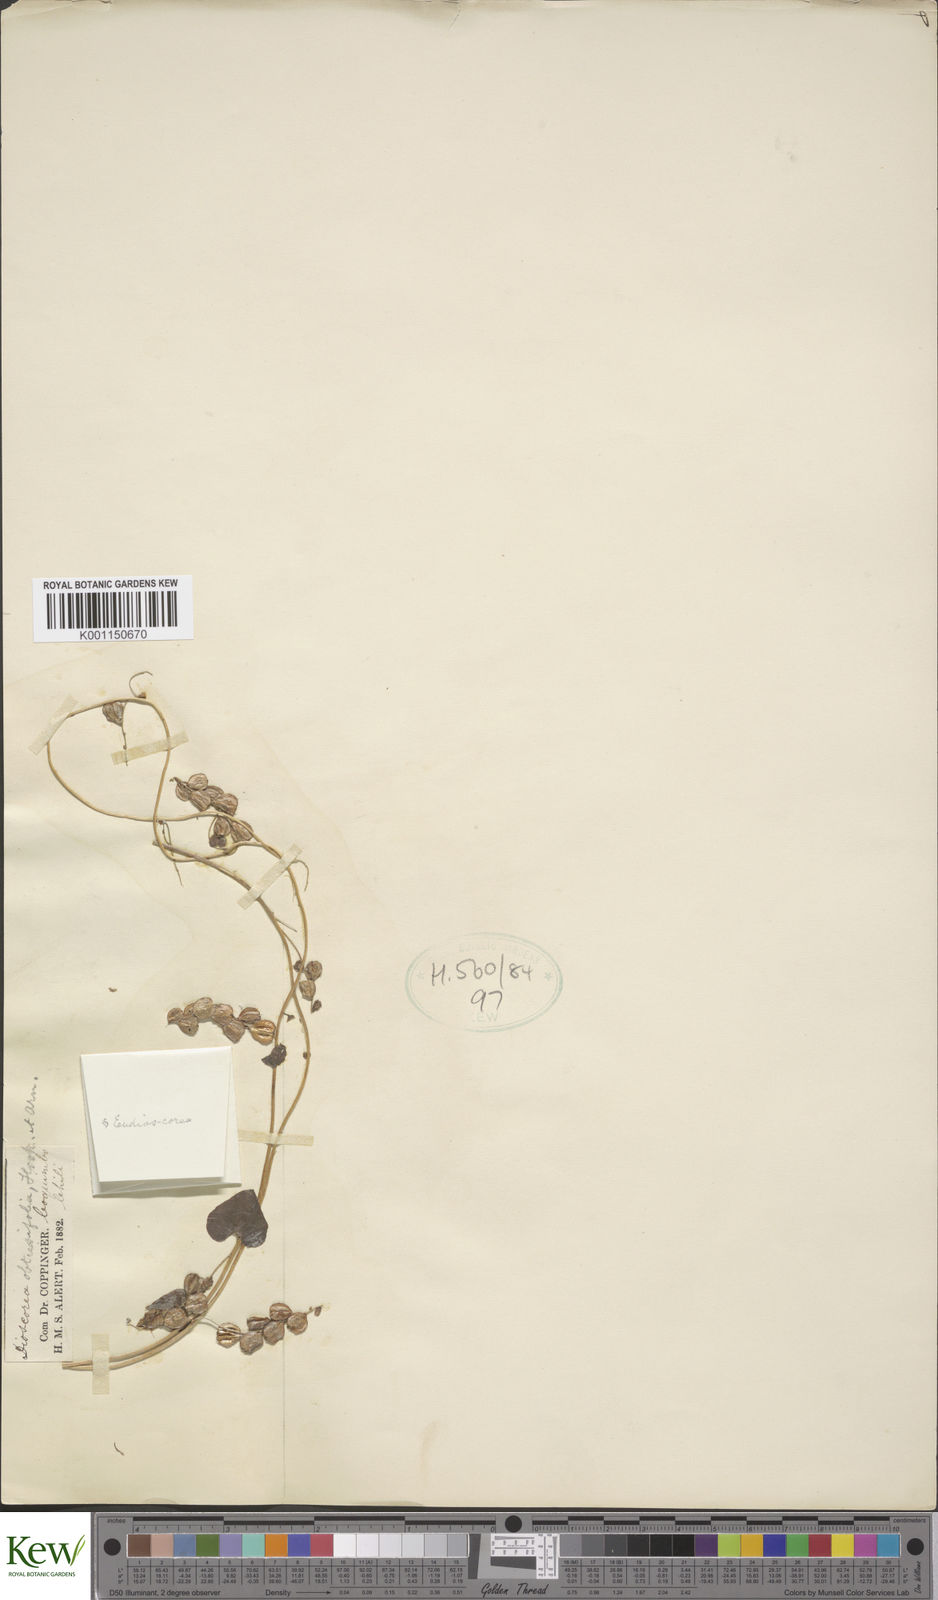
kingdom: Plantae
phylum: Tracheophyta
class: Liliopsida
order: Dioscoreales
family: Dioscoreaceae
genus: Dioscorea
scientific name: Dioscorea obtusifolia
